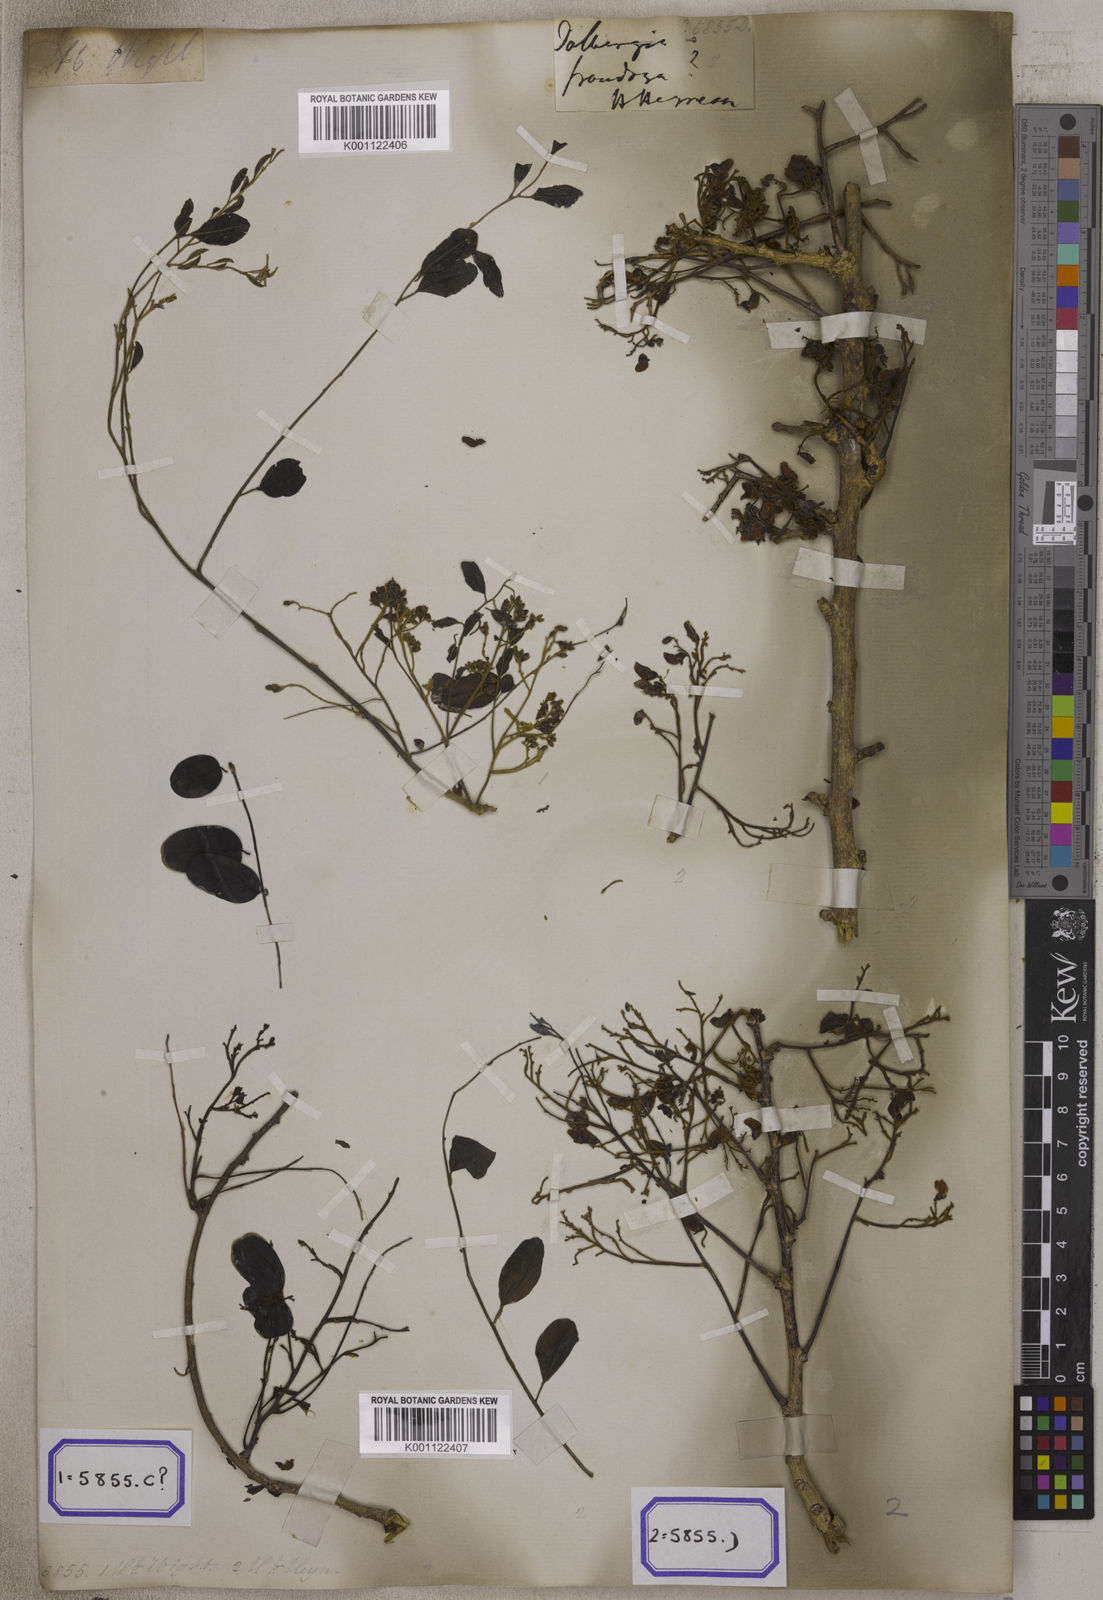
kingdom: Plantae
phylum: Tracheophyta
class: Magnoliopsida
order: Fabales
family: Fabaceae
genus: Dalbergia
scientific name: Dalbergia
